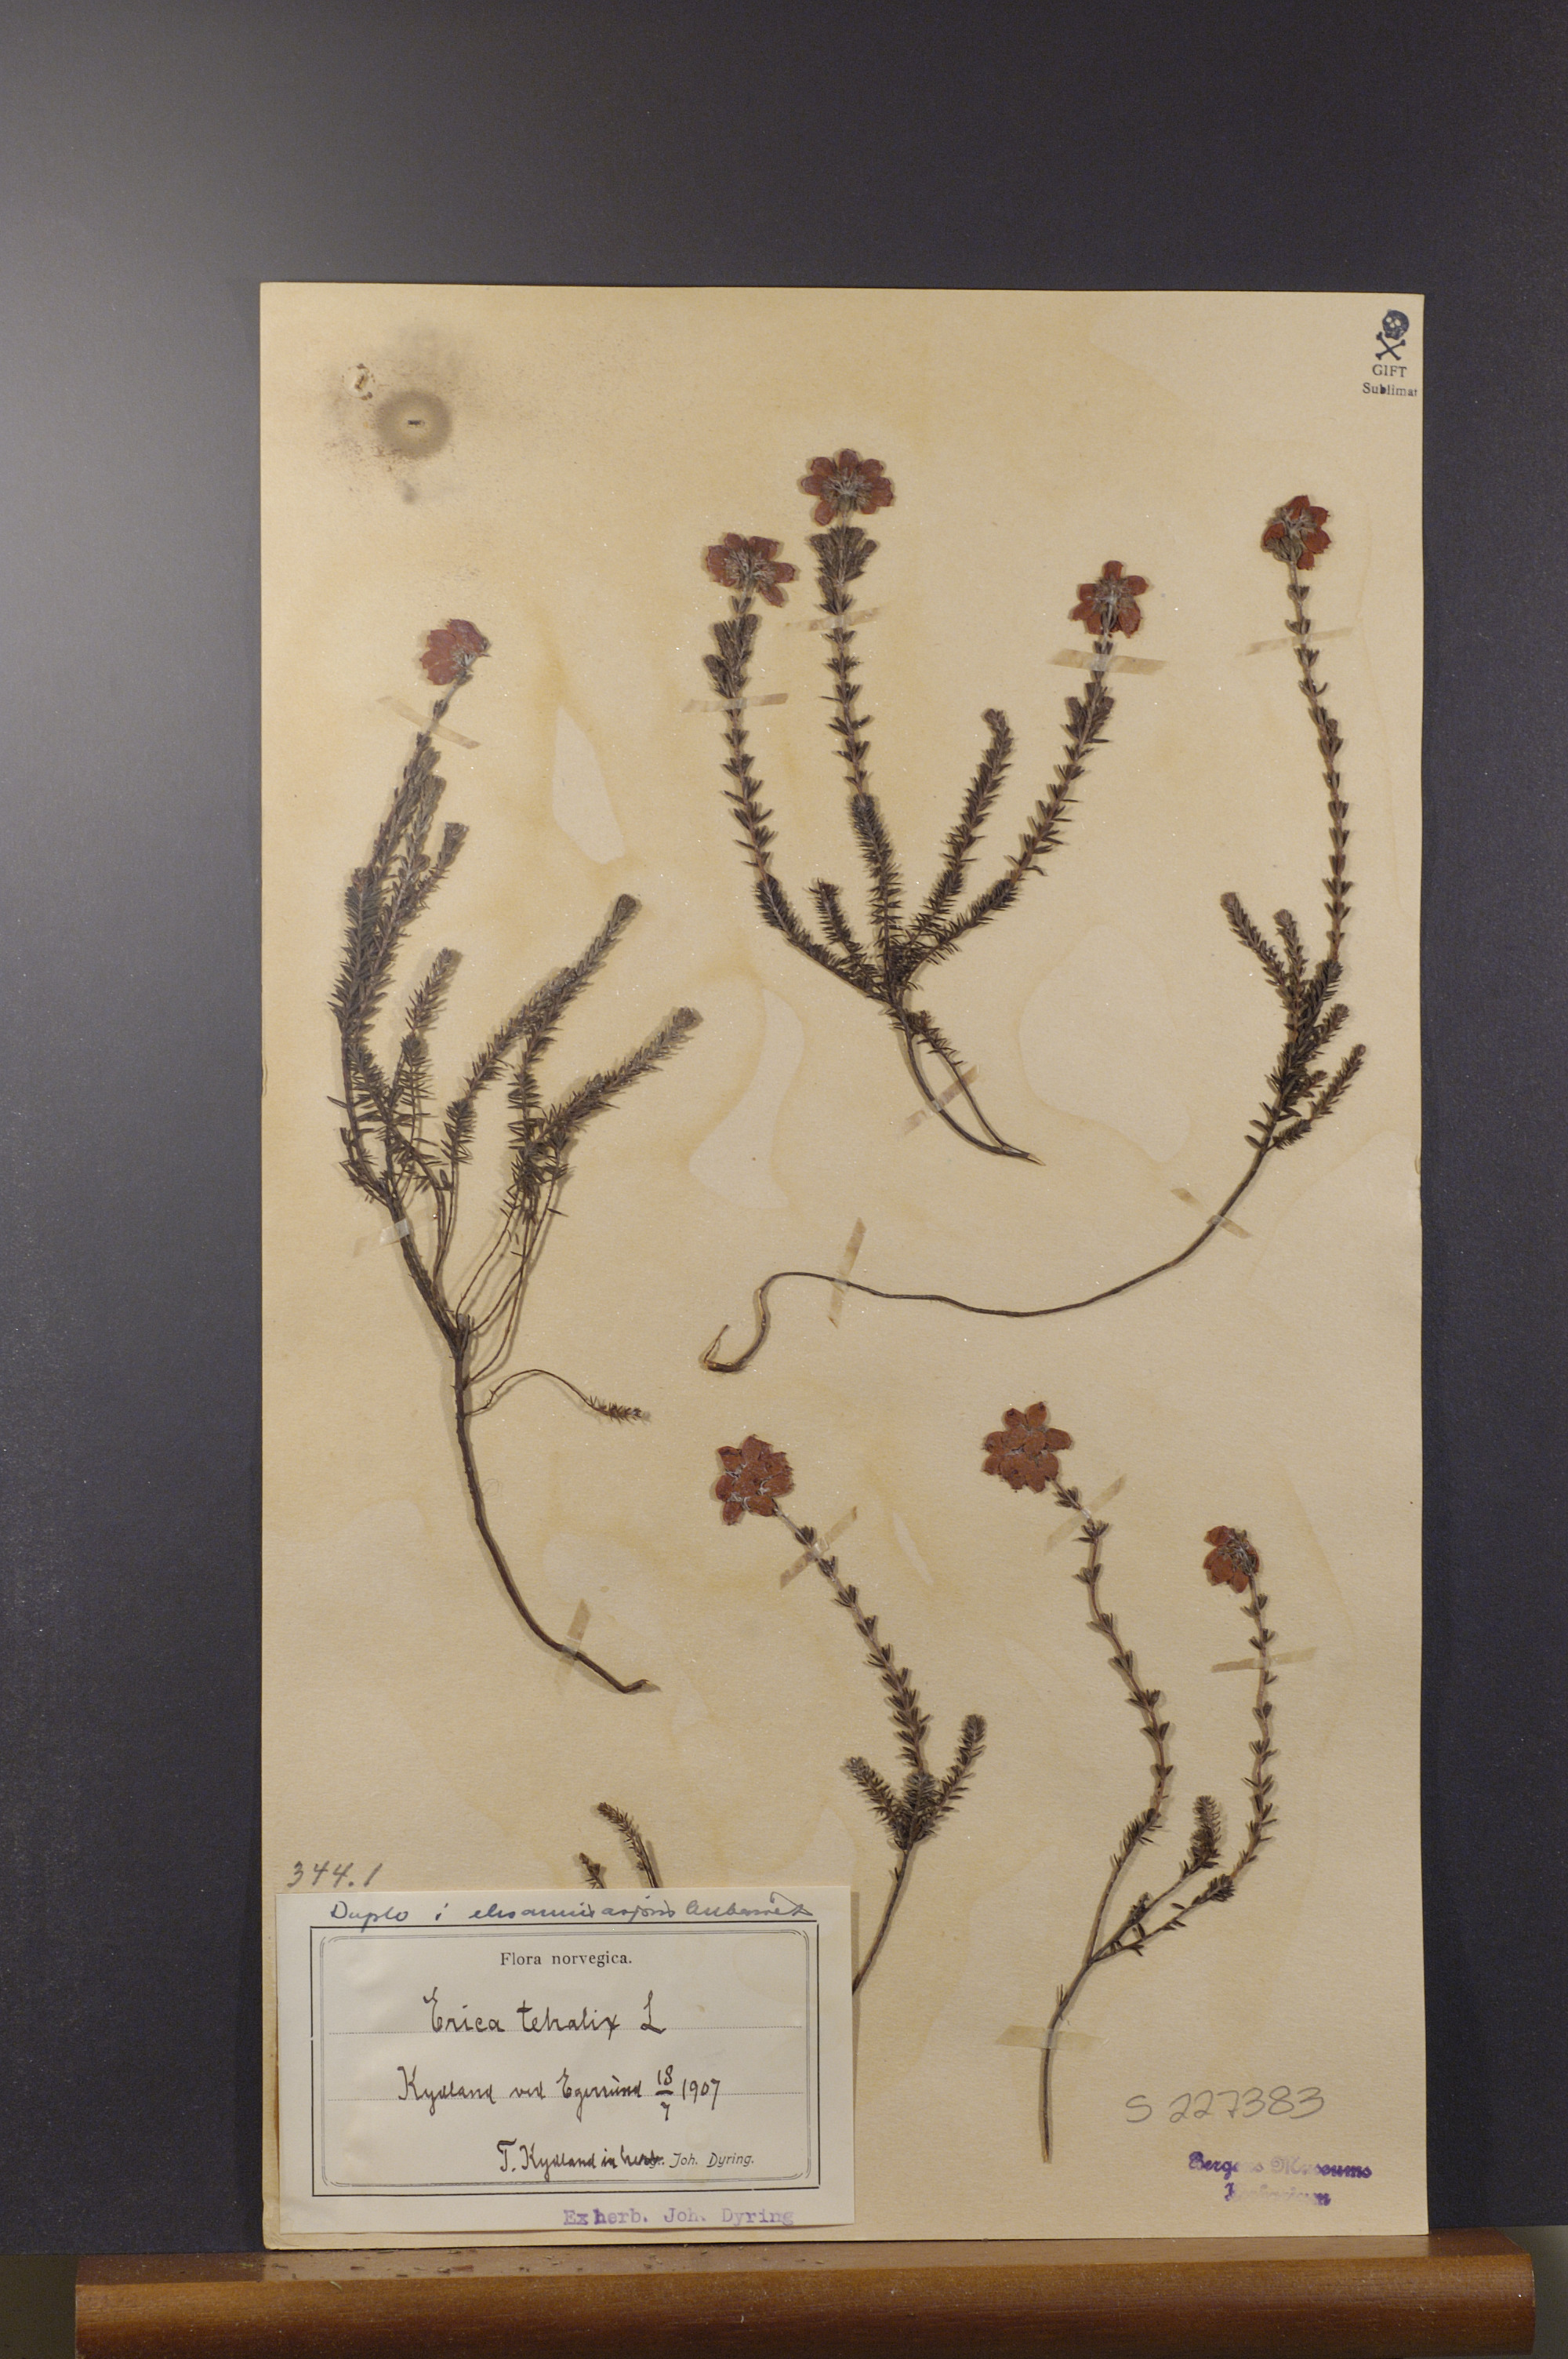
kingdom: Plantae
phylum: Tracheophyta
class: Magnoliopsida
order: Ericales
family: Ericaceae
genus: Erica
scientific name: Erica tetralix
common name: Cross-leaved heath
